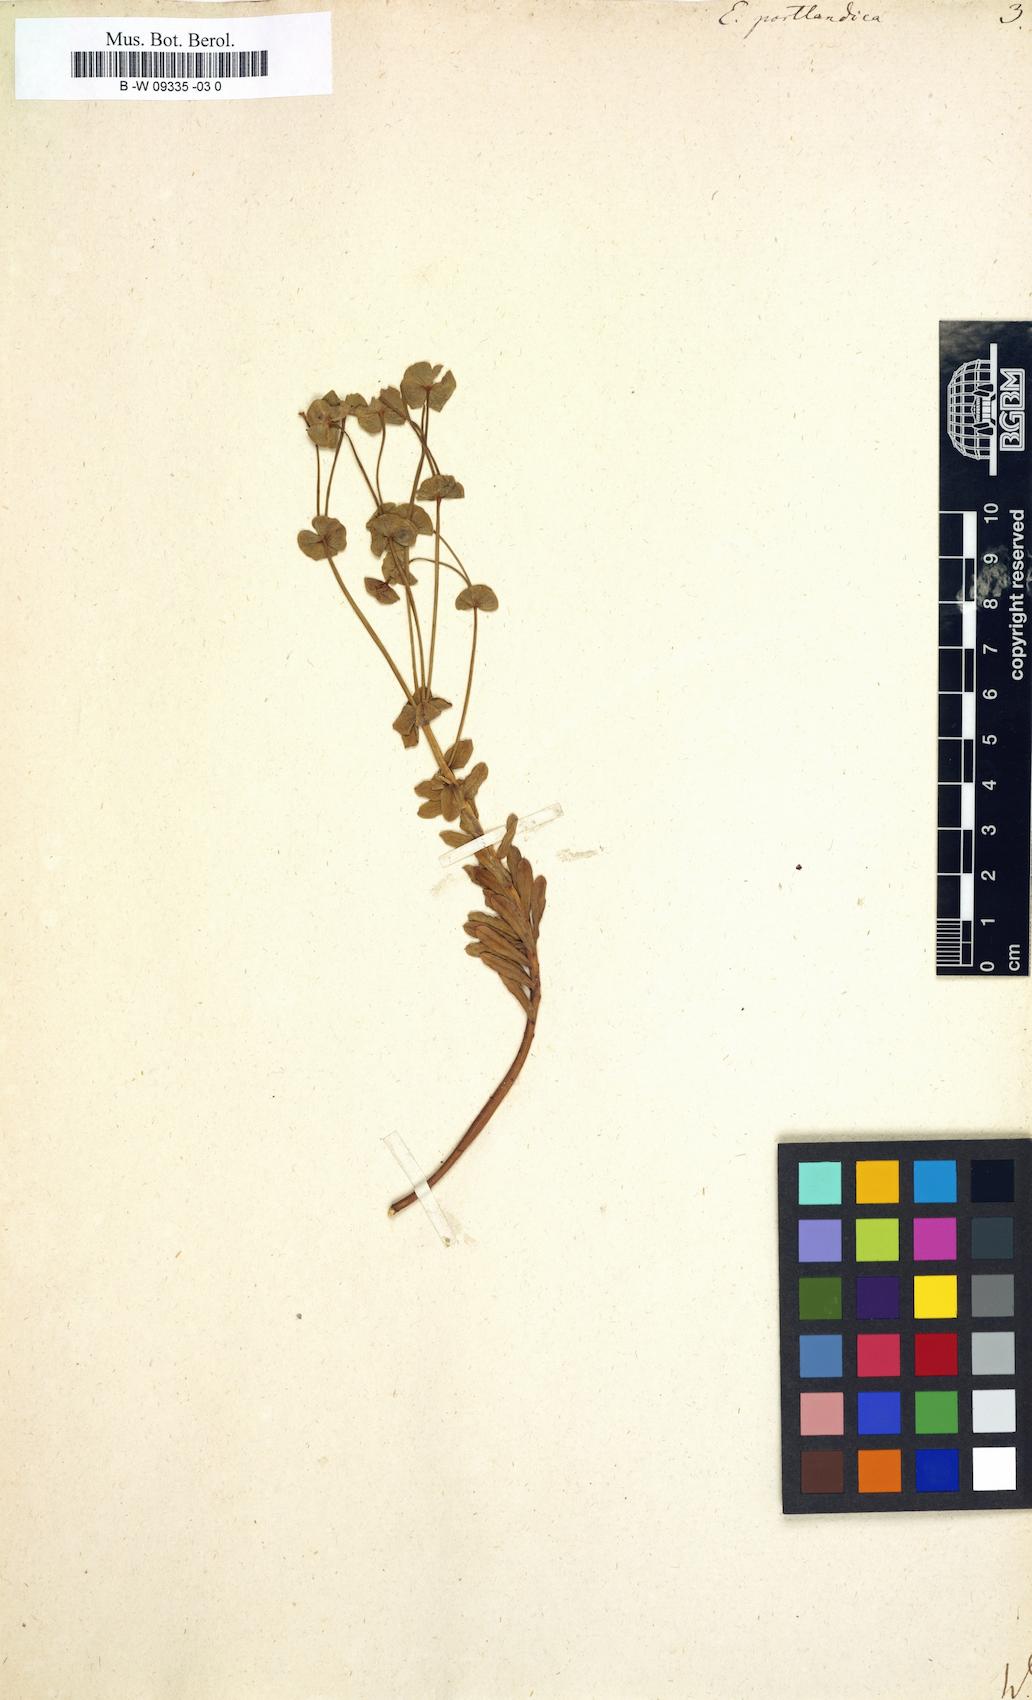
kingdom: Plantae
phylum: Tracheophyta
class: Magnoliopsida
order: Malpighiales
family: Euphorbiaceae
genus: Euphorbia
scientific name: Euphorbia portlandica
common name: Portland spurge
